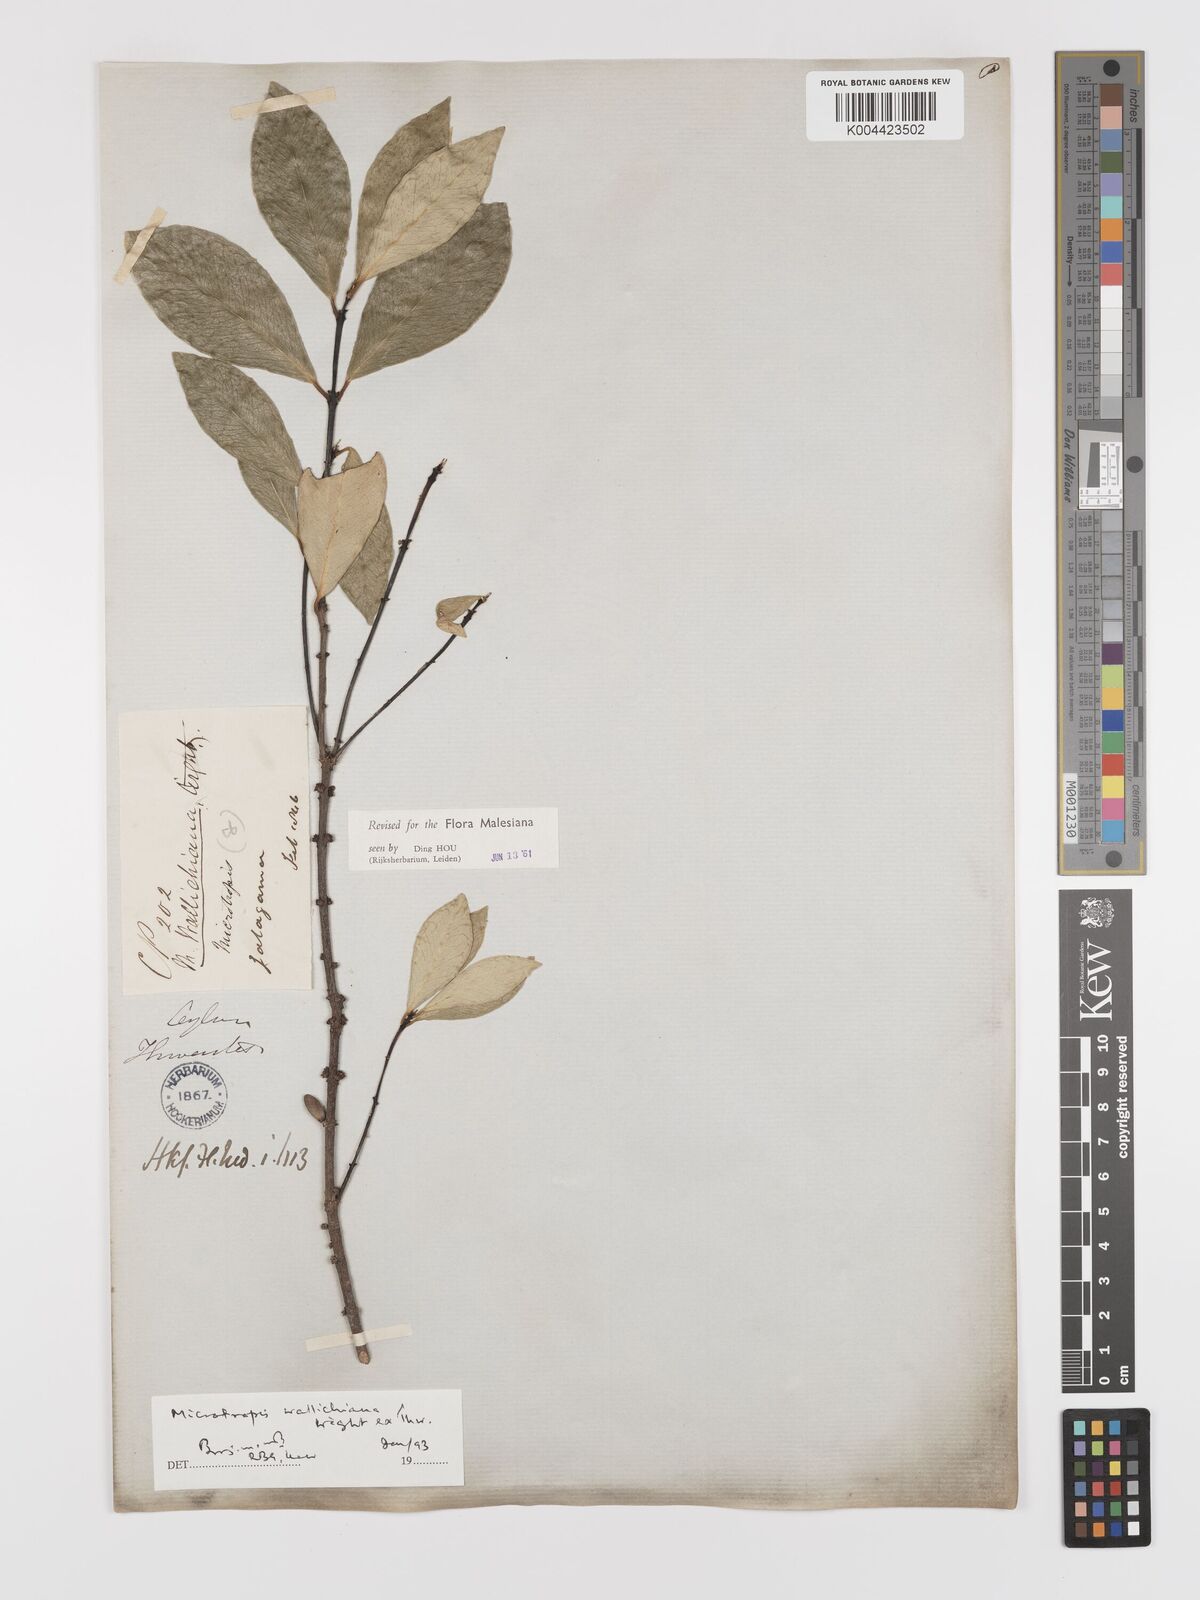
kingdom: Plantae
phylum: Tracheophyta
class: Magnoliopsida
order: Celastrales
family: Celastraceae
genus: Microtropis
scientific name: Microtropis wallichiana
